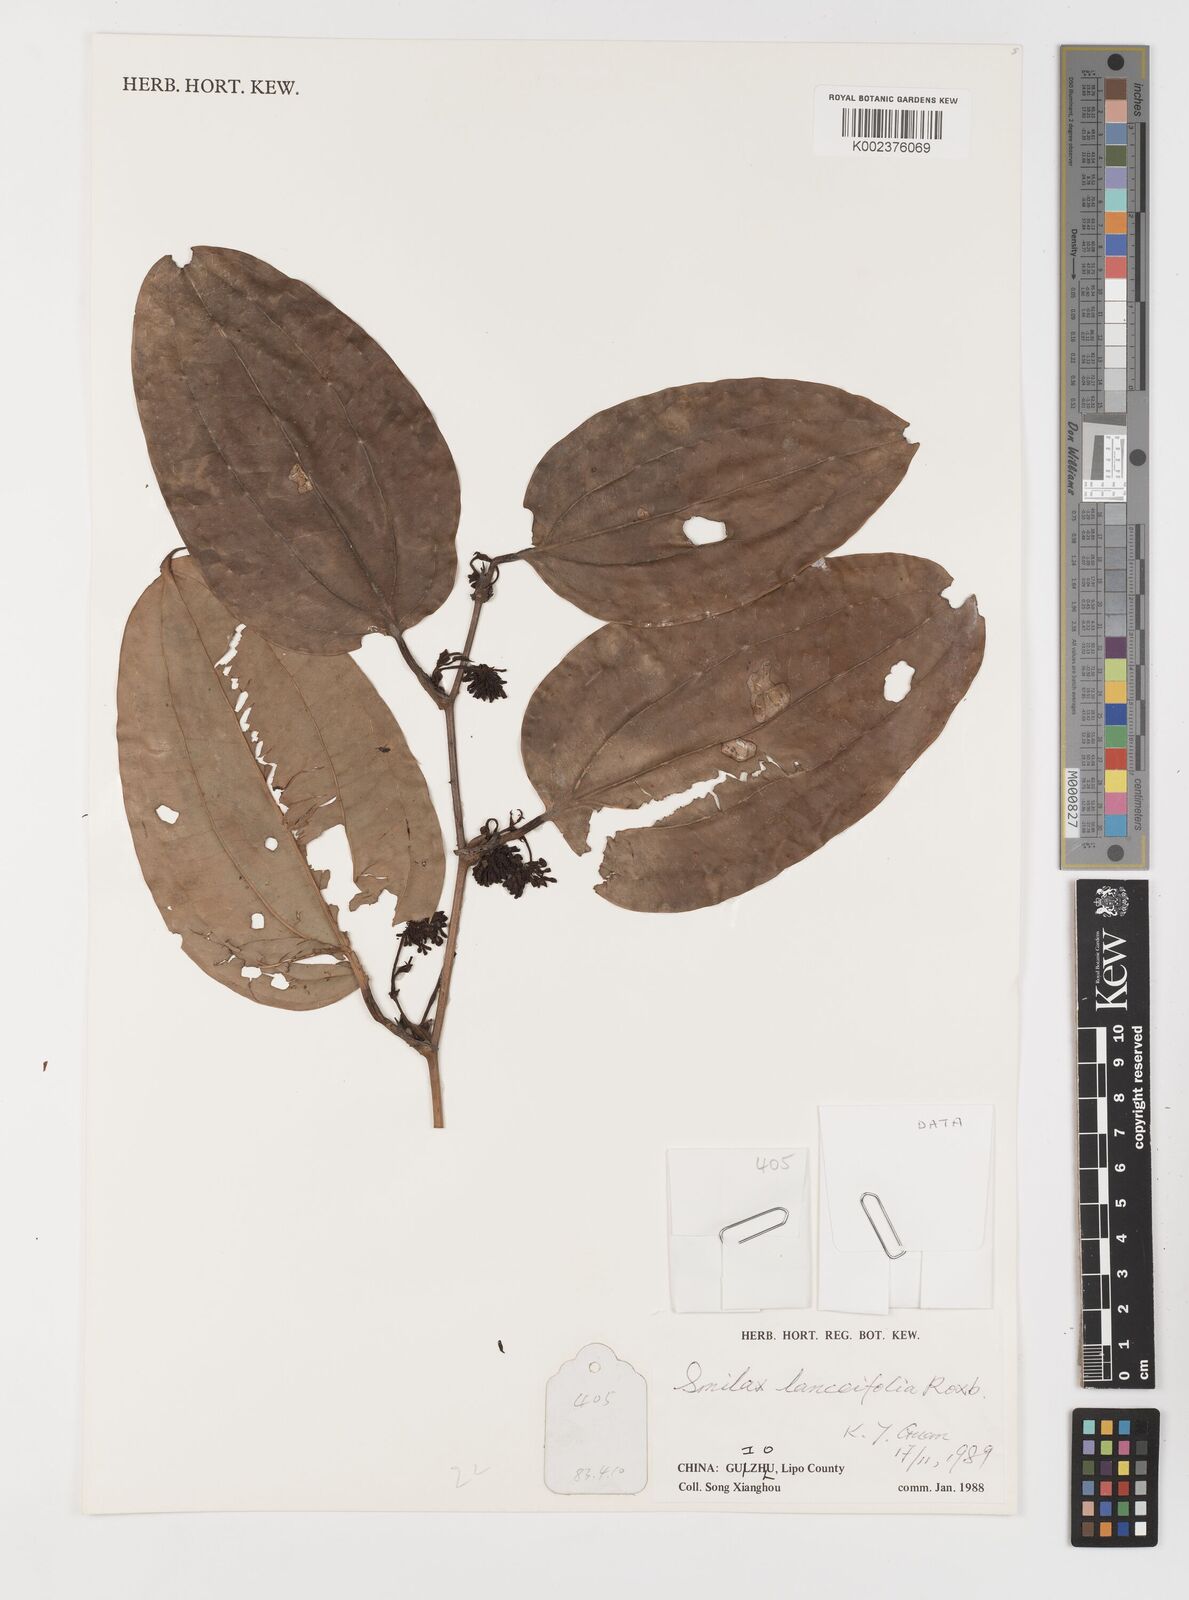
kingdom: Plantae
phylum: Tracheophyta
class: Liliopsida
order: Liliales
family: Smilacaceae
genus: Smilax
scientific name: Smilax lanceifolia
